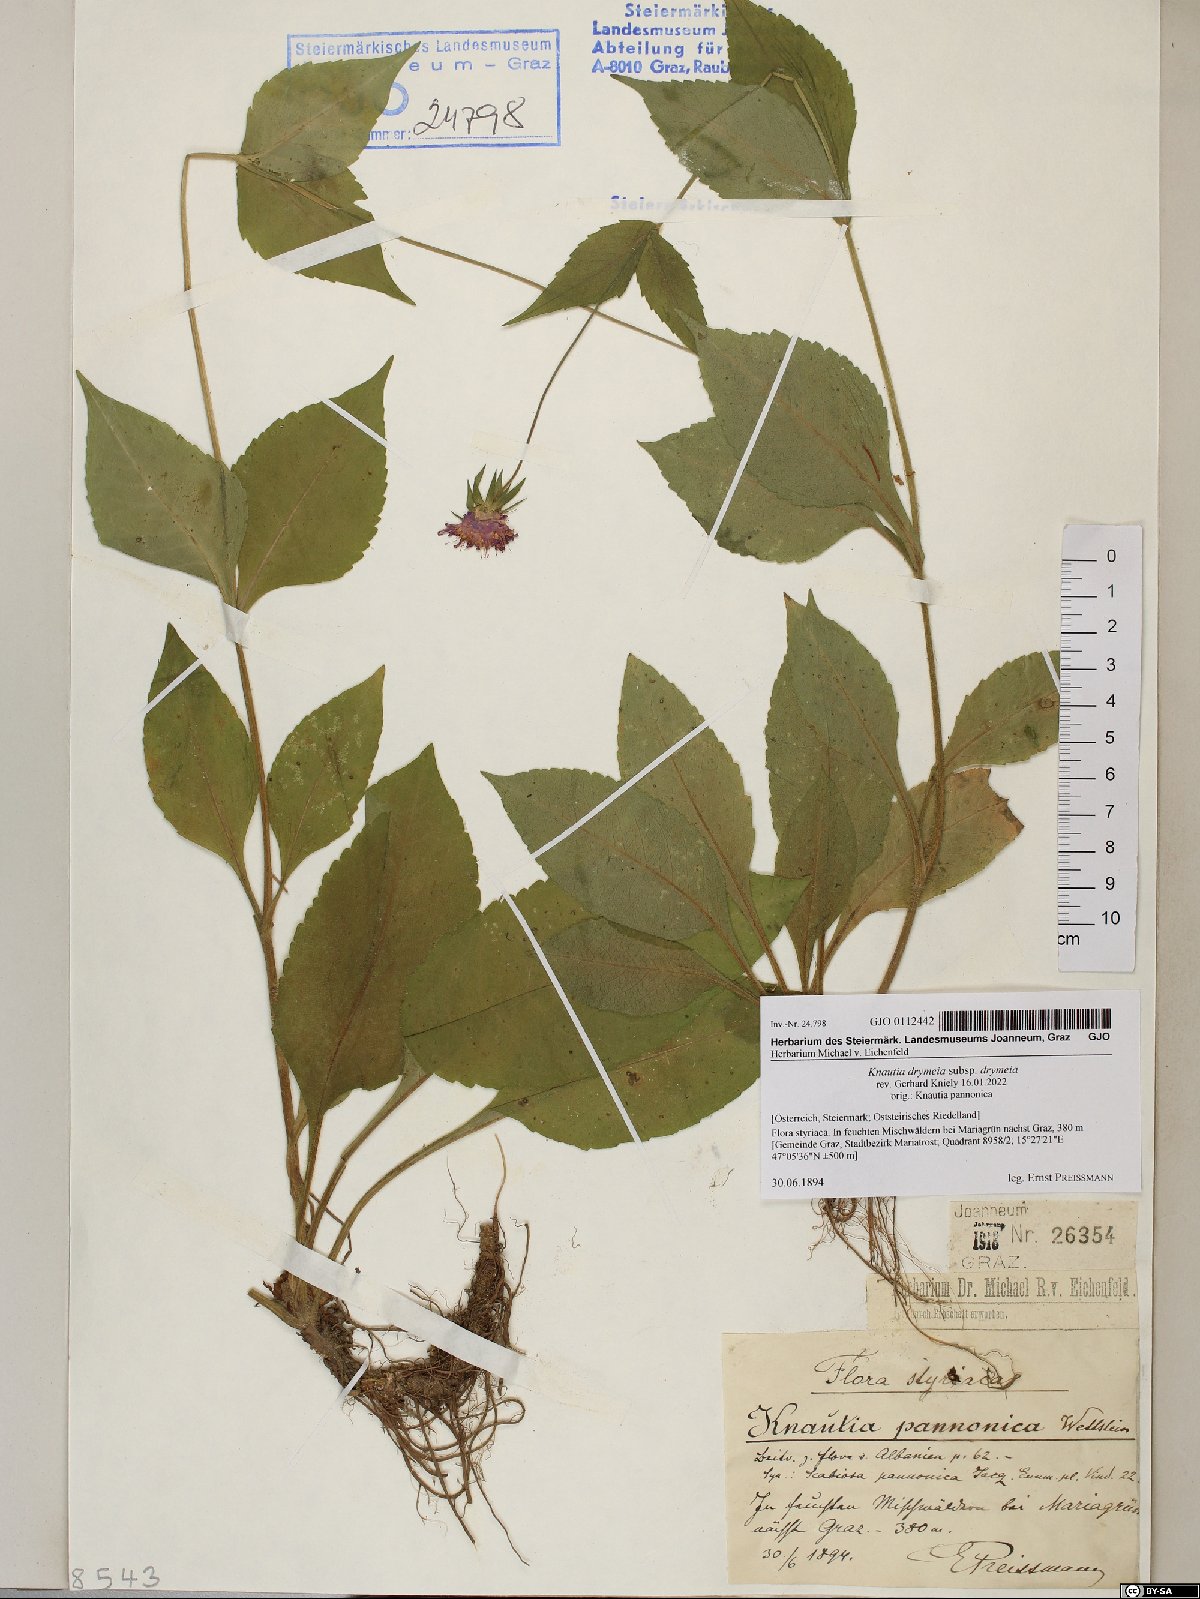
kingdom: Plantae
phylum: Tracheophyta
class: Magnoliopsida
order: Dipsacales
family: Caprifoliaceae
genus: Knautia
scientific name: Knautia drymeia
